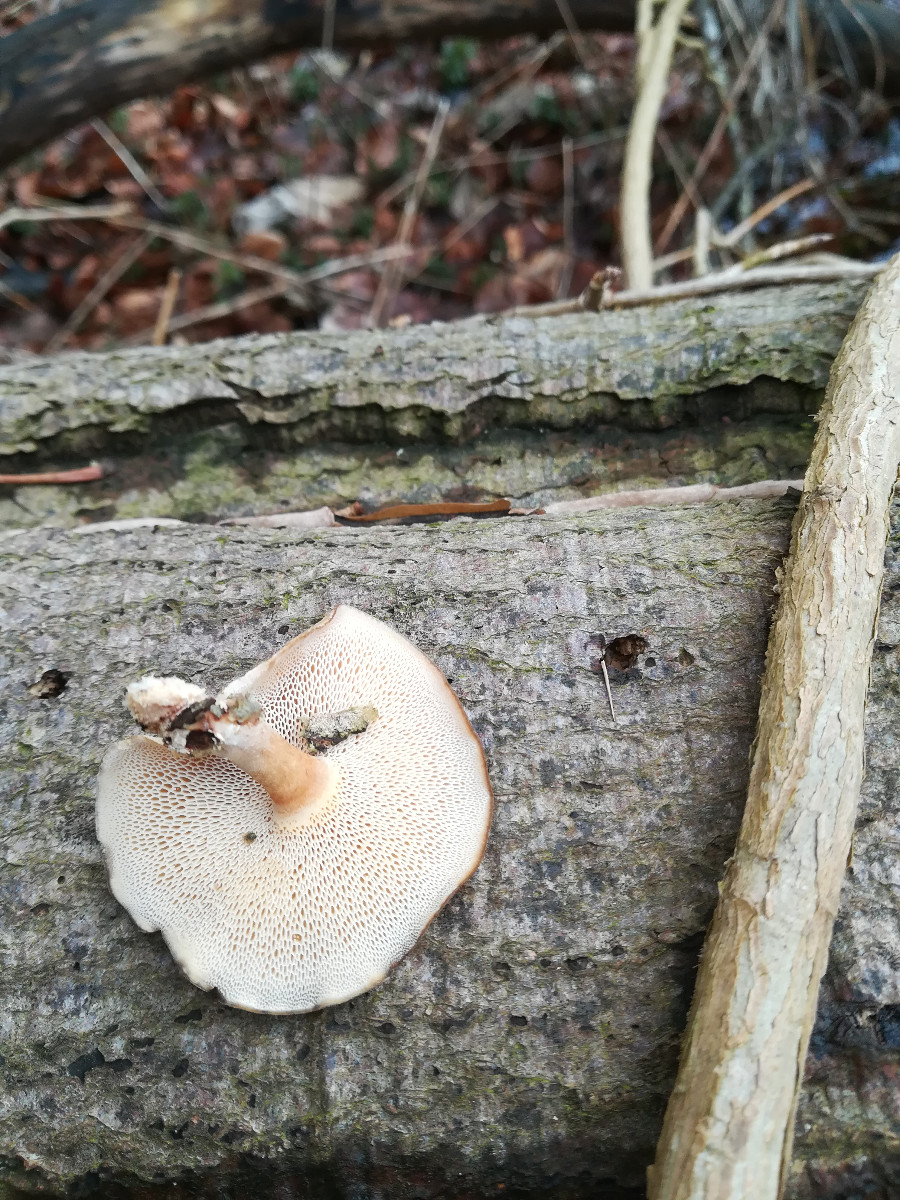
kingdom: Fungi
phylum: Basidiomycota
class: Agaricomycetes
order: Polyporales
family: Polyporaceae
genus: Lentinus
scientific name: Lentinus brumalis
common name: vinter-stilkporesvamp
